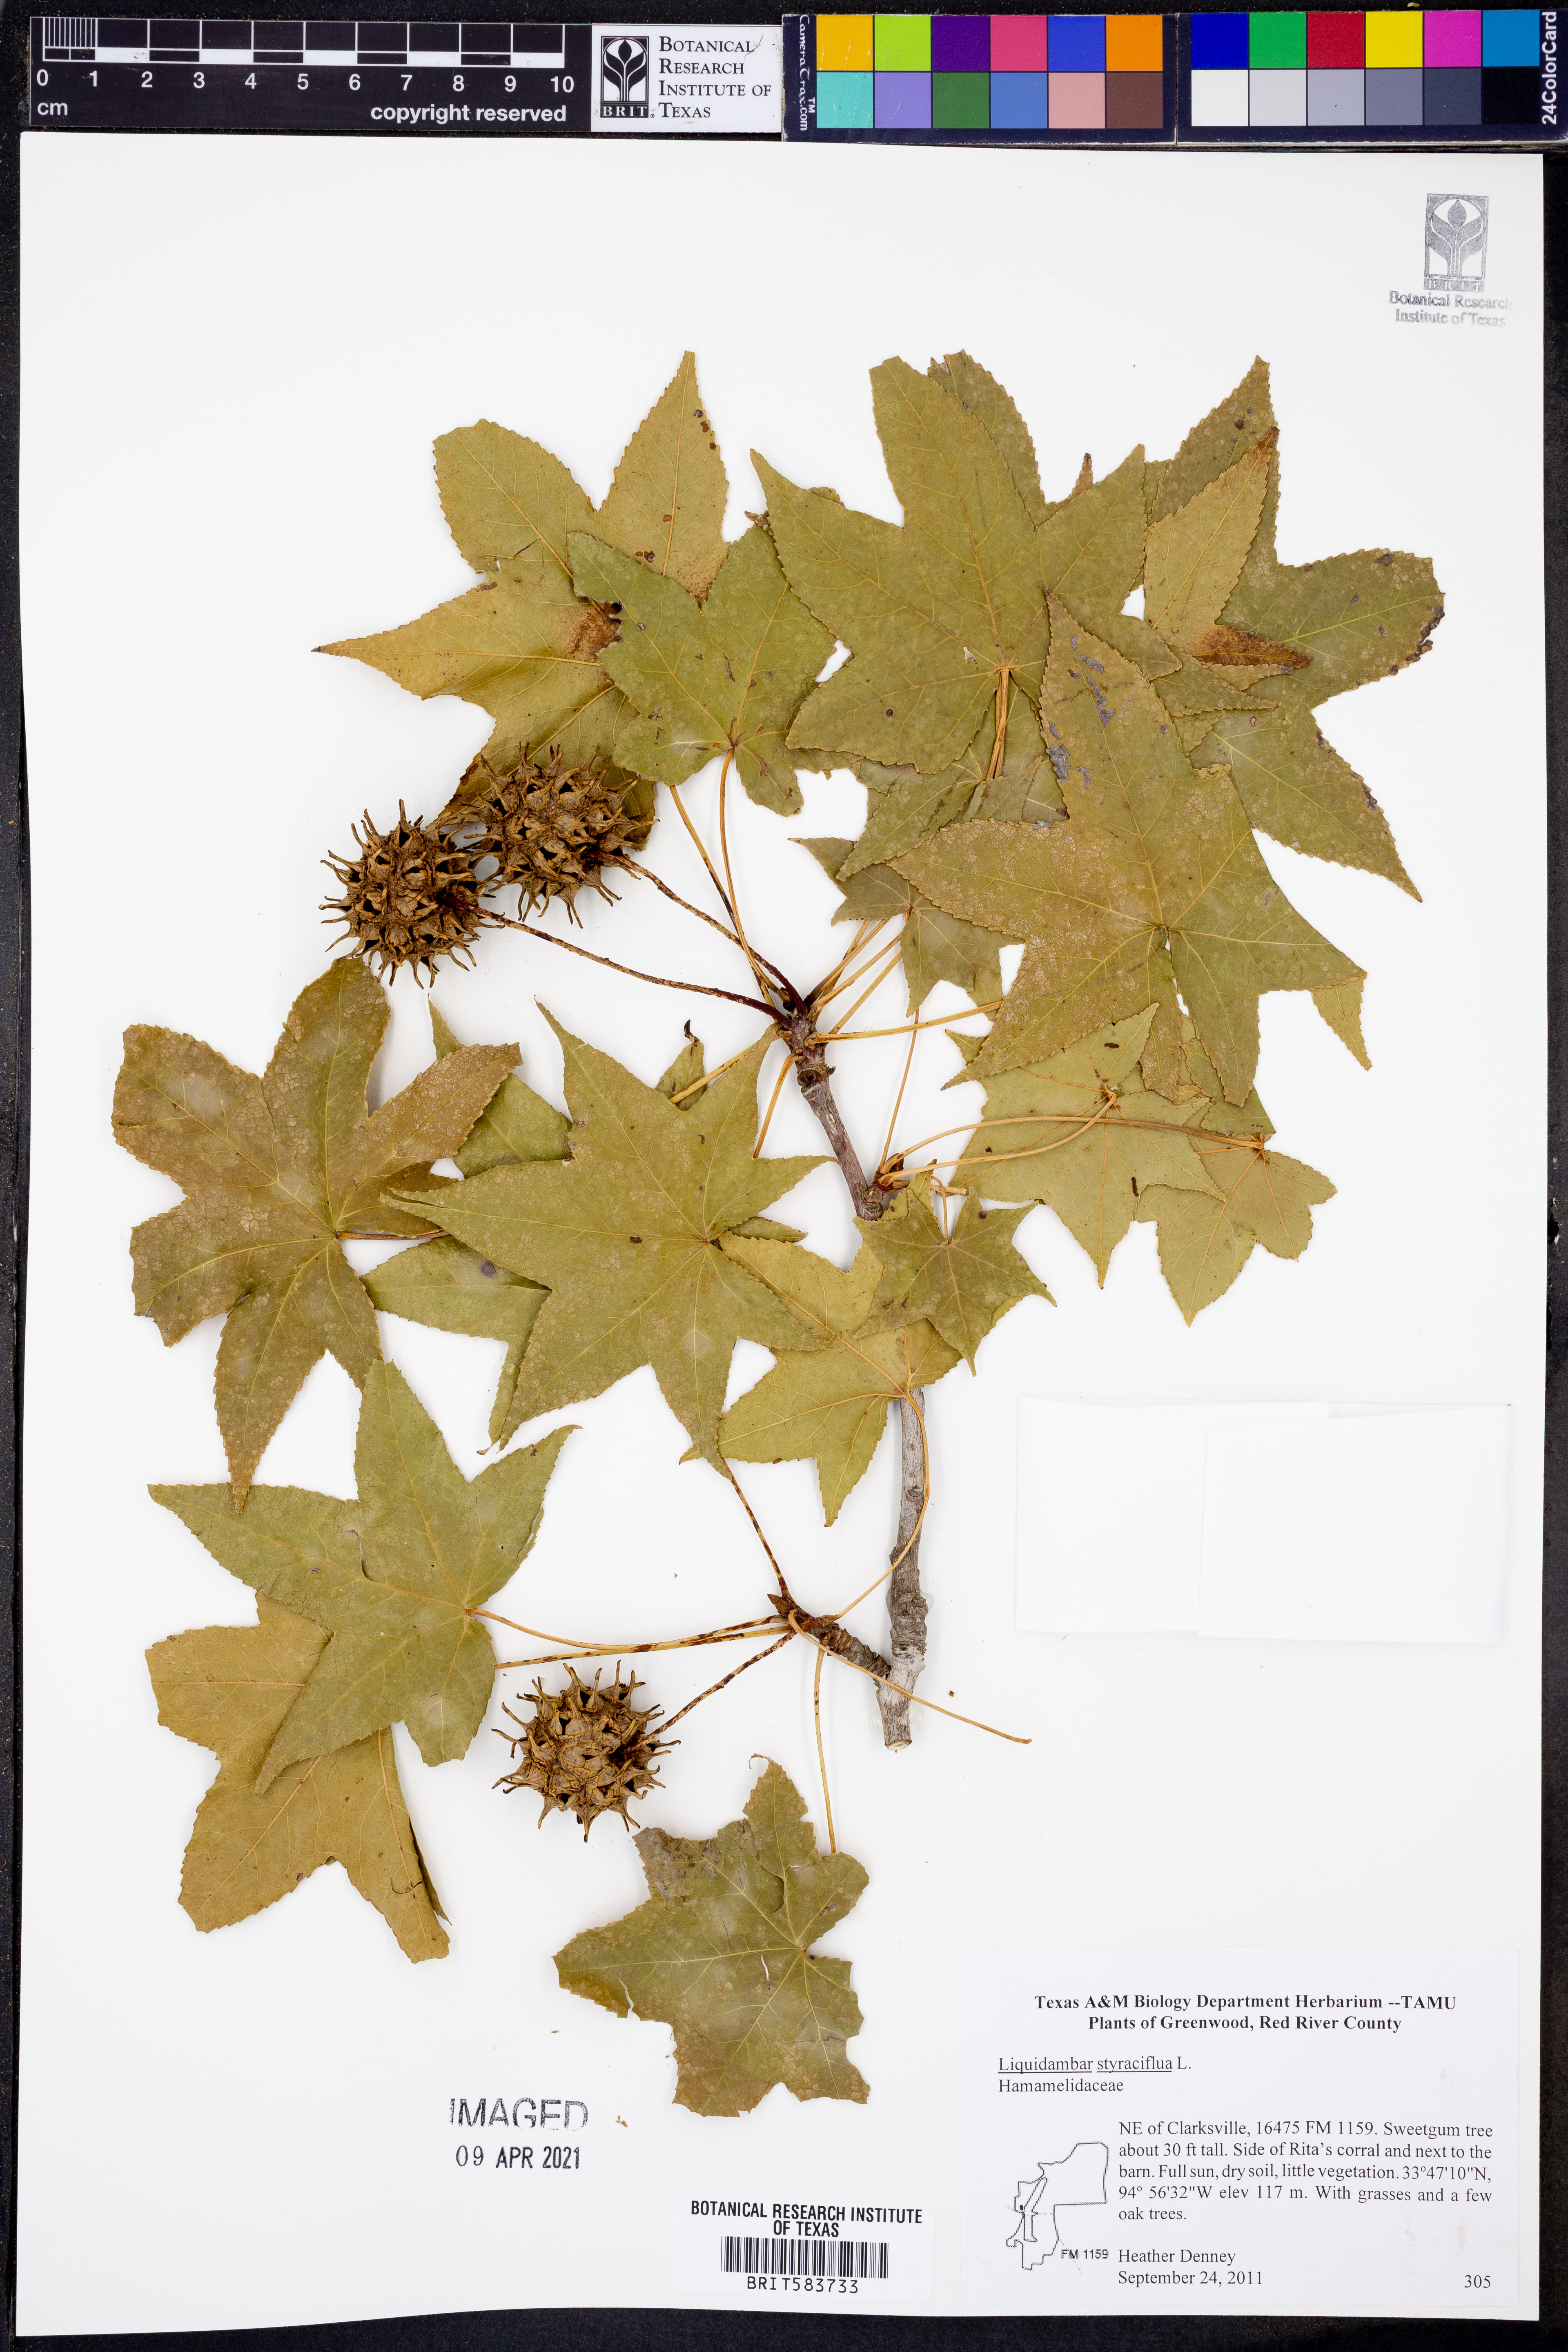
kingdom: Plantae
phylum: Tracheophyta
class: Magnoliopsida
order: Saxifragales
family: Altingiaceae
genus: Liquidambar
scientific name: Liquidambar styraciflua
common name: Sweet gum
